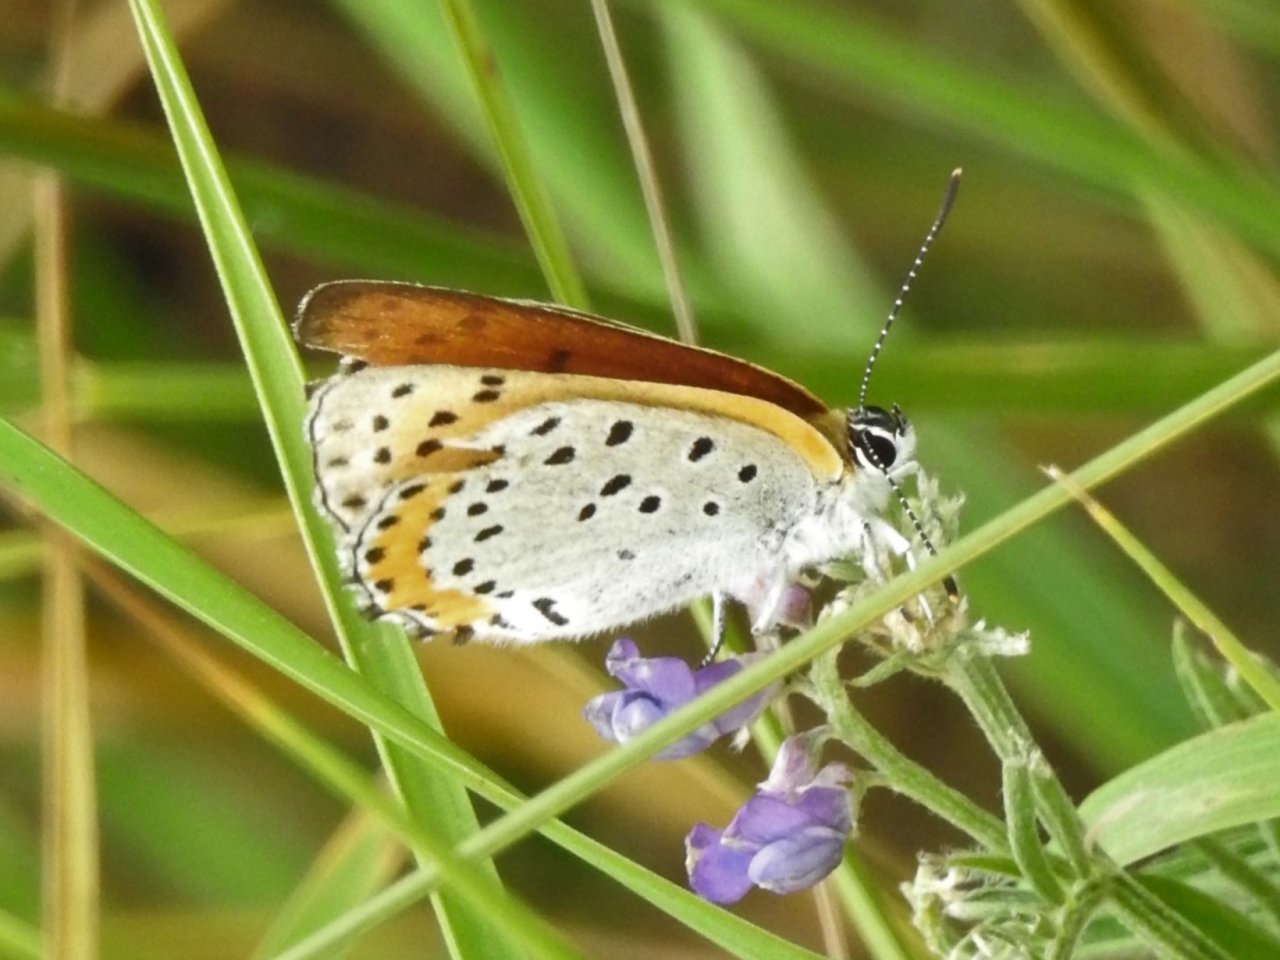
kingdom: Animalia
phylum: Arthropoda
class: Insecta
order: Lepidoptera
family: Sesiidae
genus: Sesia
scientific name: Sesia Lycaena hyllus
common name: Bronze Copper
